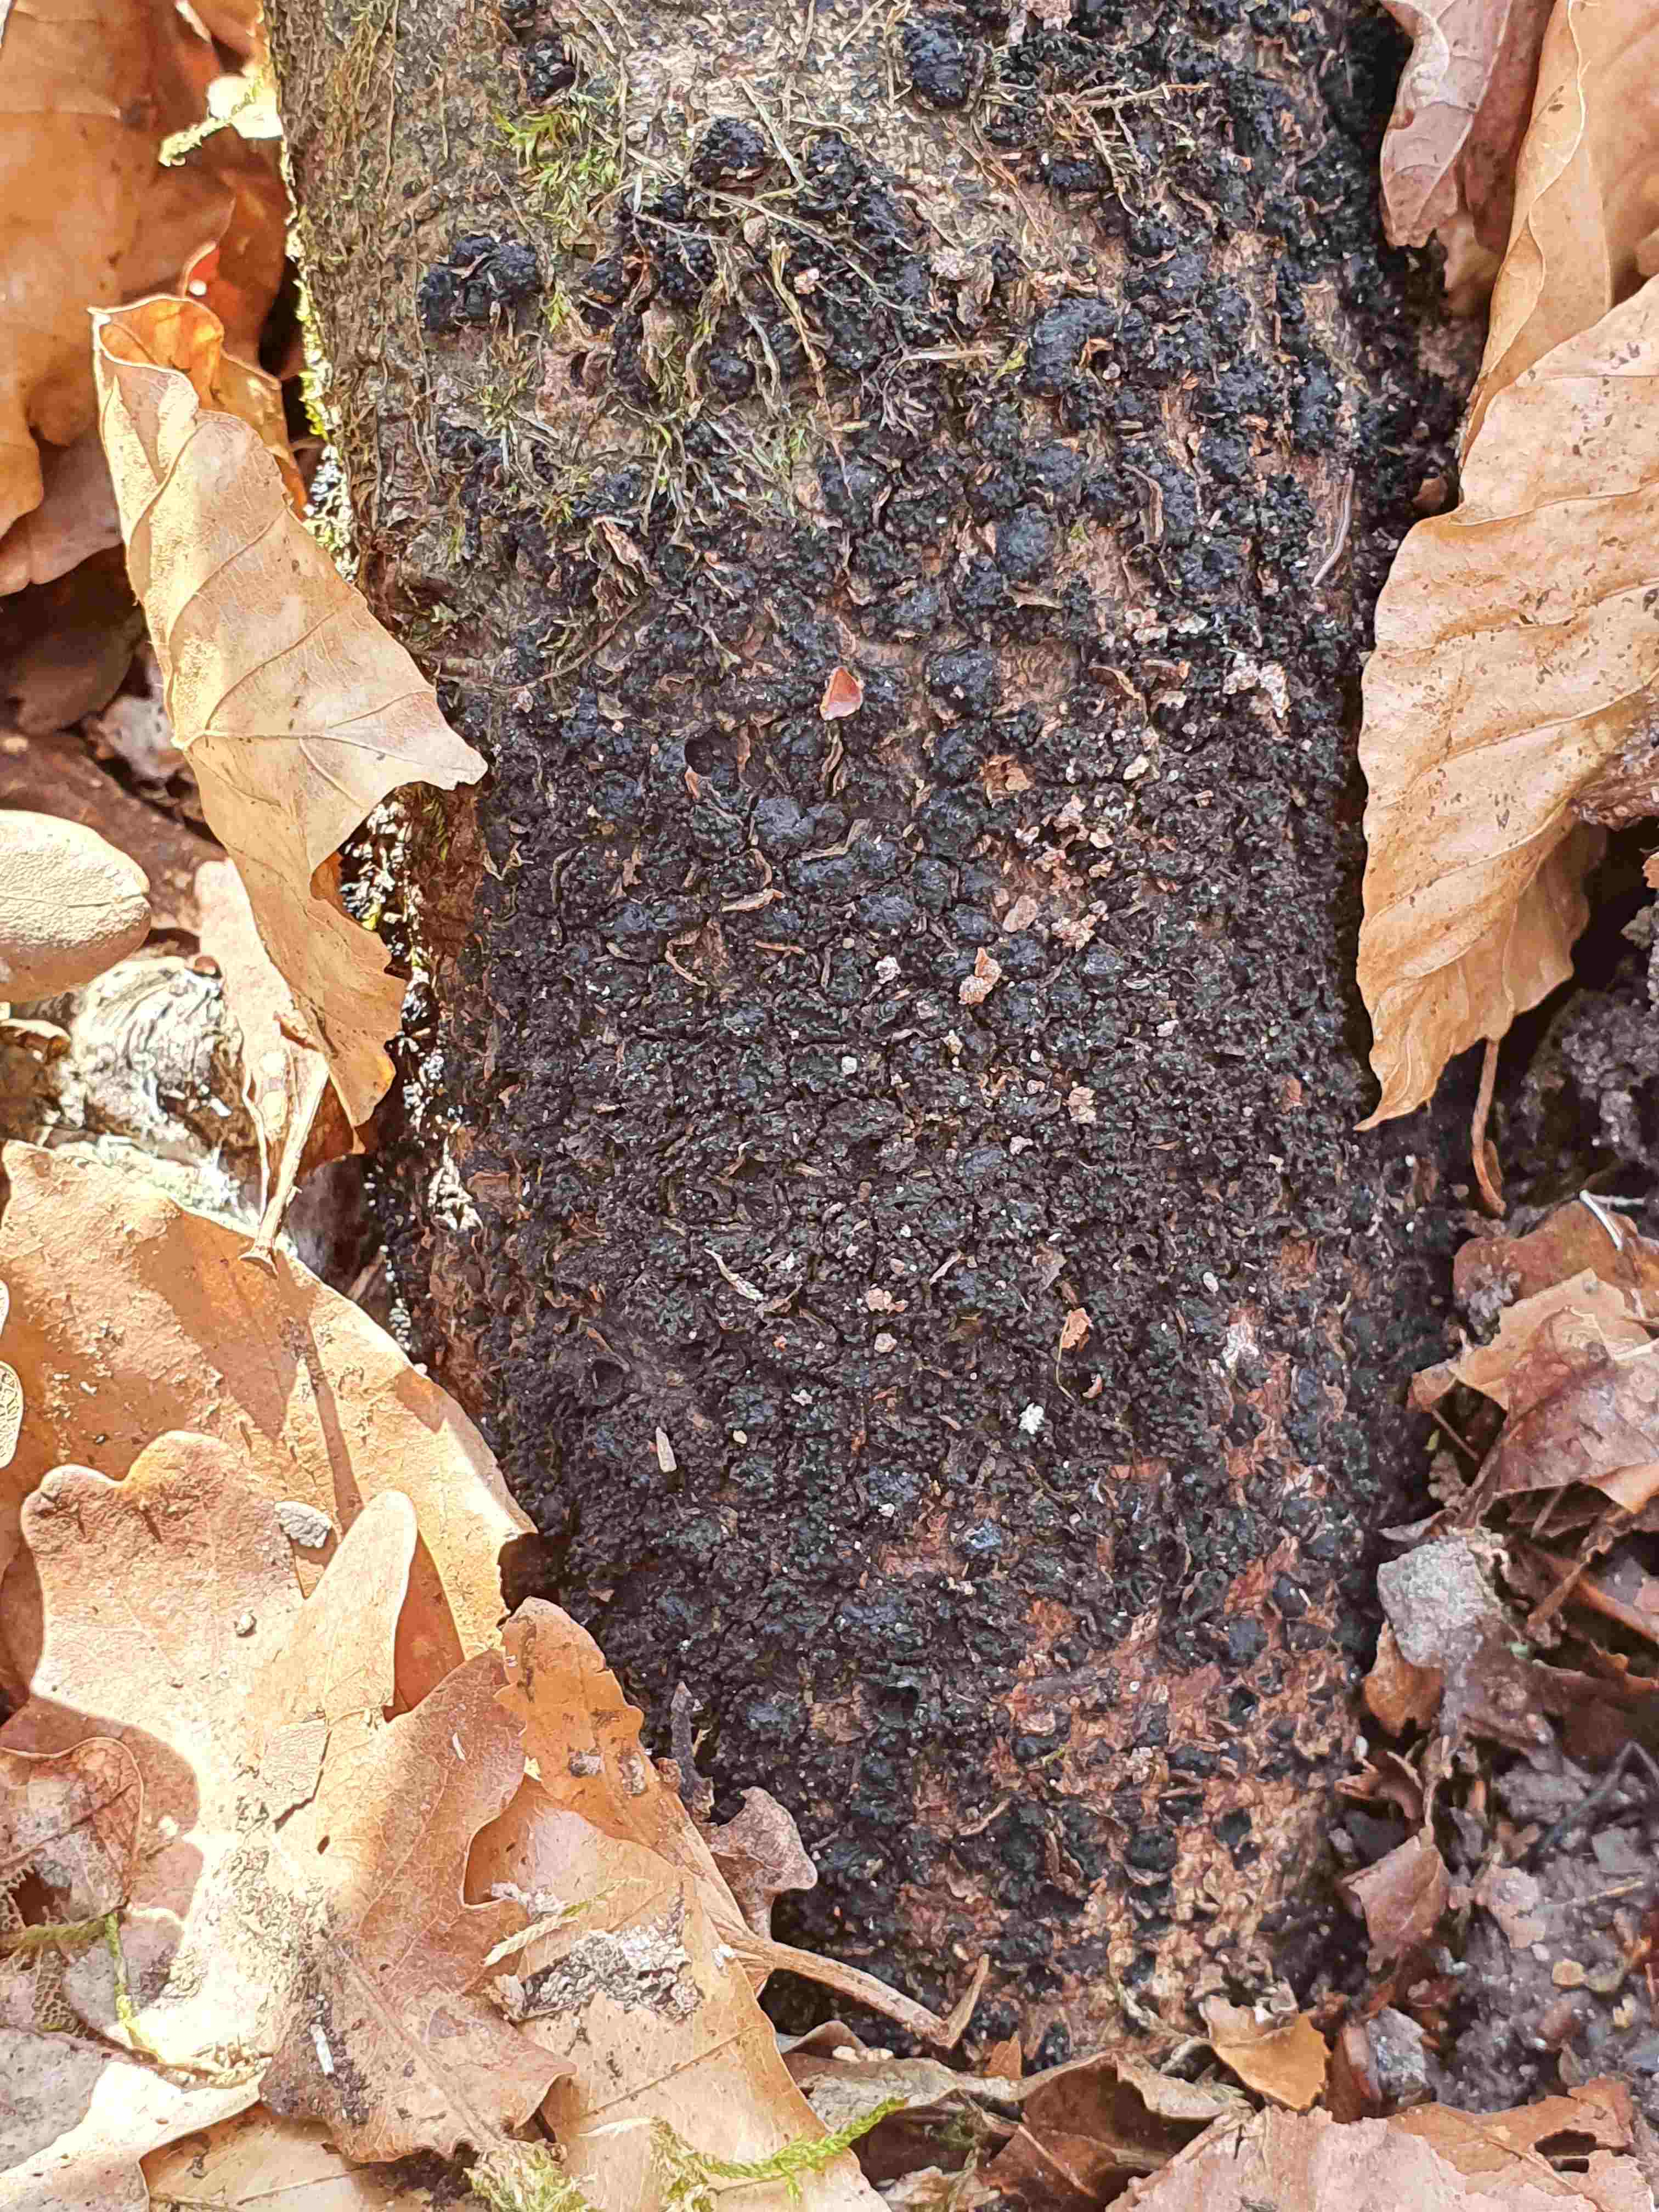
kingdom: Fungi
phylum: Ascomycota
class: Sordariomycetes
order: Xylariales
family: Melogrammataceae
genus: Melogramma
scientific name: Melogramma spiniferum
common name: bøgefod-kulhals
